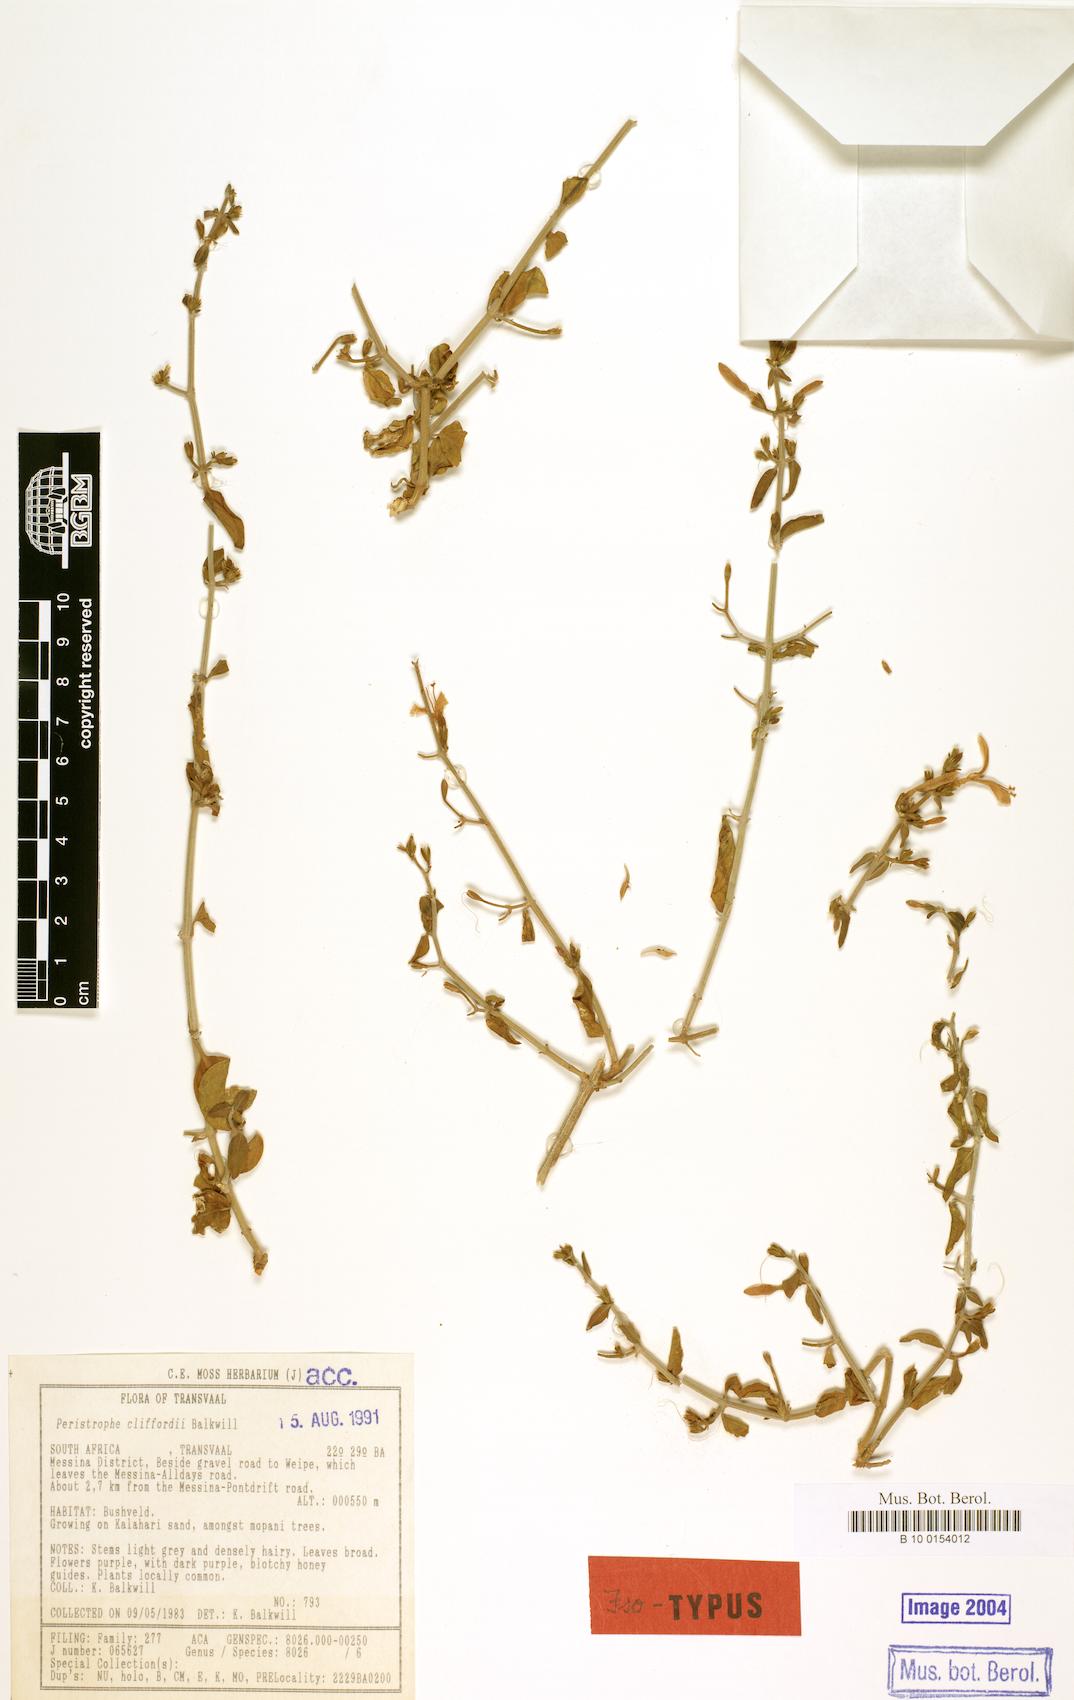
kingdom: Plantae
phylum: Tracheophyta
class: Magnoliopsida
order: Lamiales
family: Acanthaceae
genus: Dicliptera
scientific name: Dicliptera cliffordii
